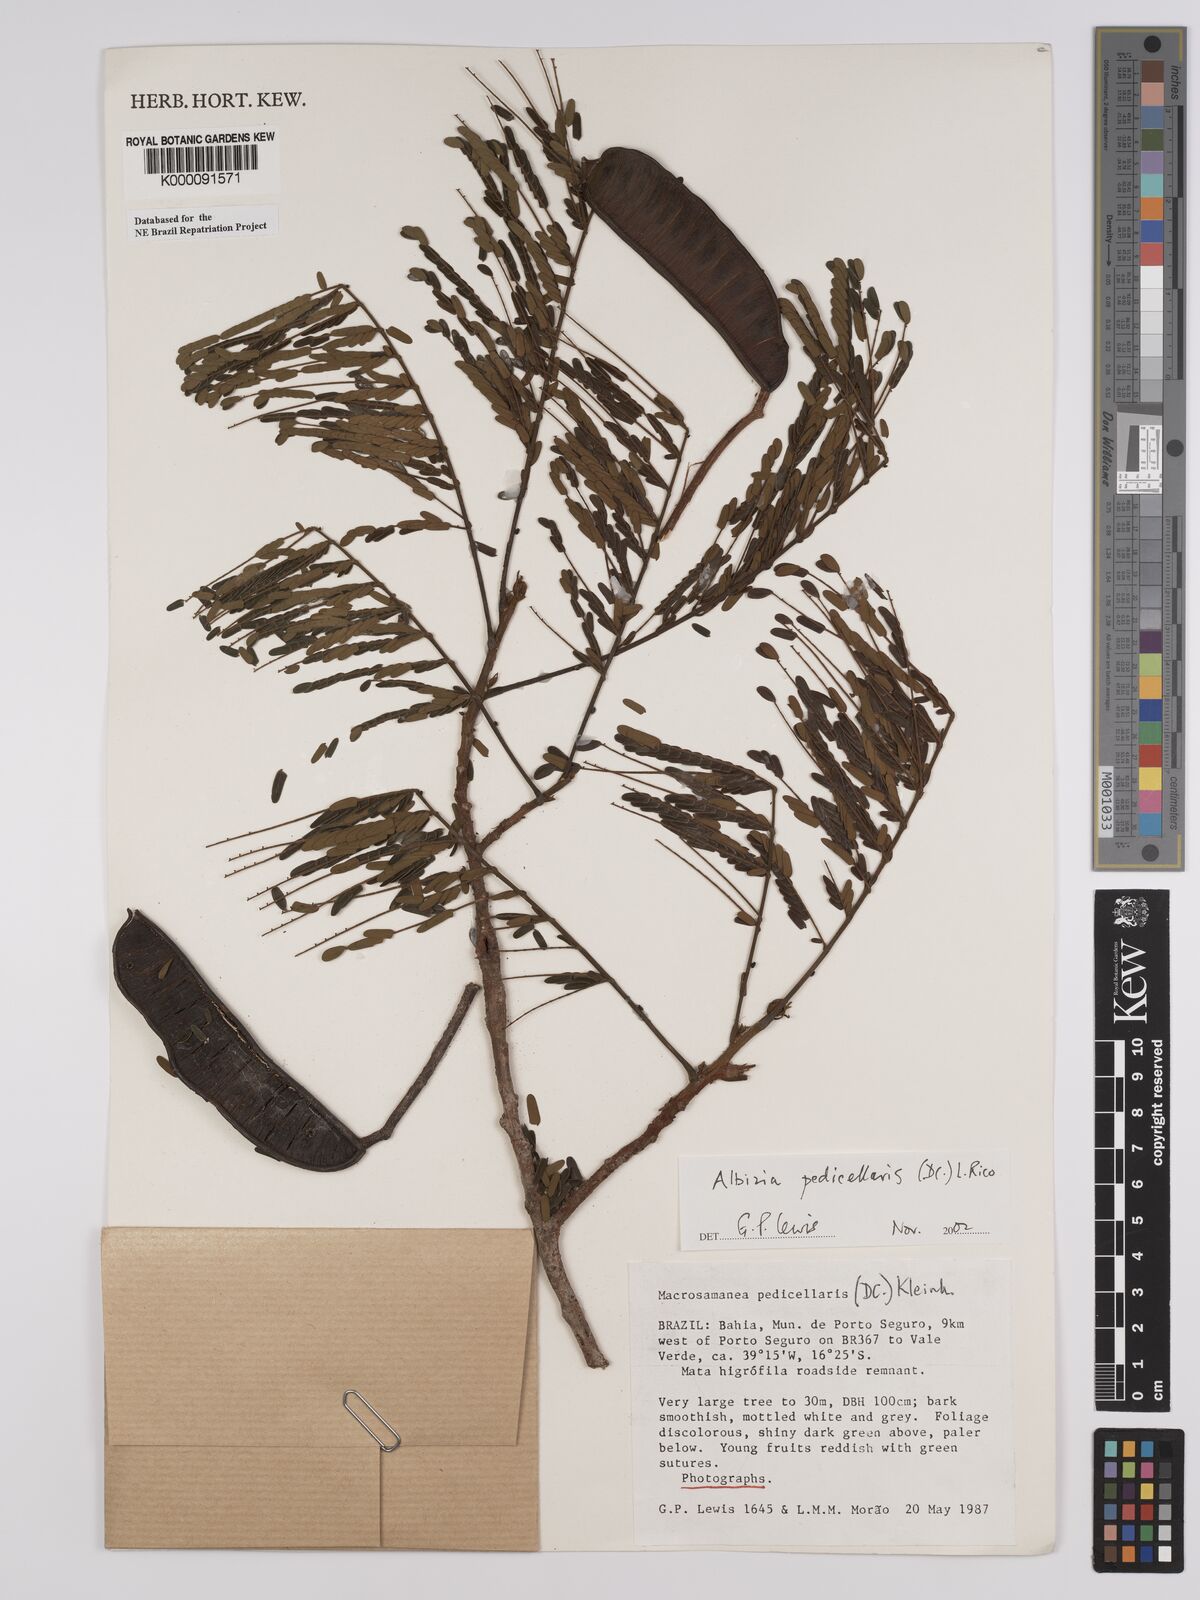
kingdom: Plantae
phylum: Tracheophyta
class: Magnoliopsida
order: Fabales
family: Fabaceae
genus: Balizia
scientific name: Balizia pedicellaris
